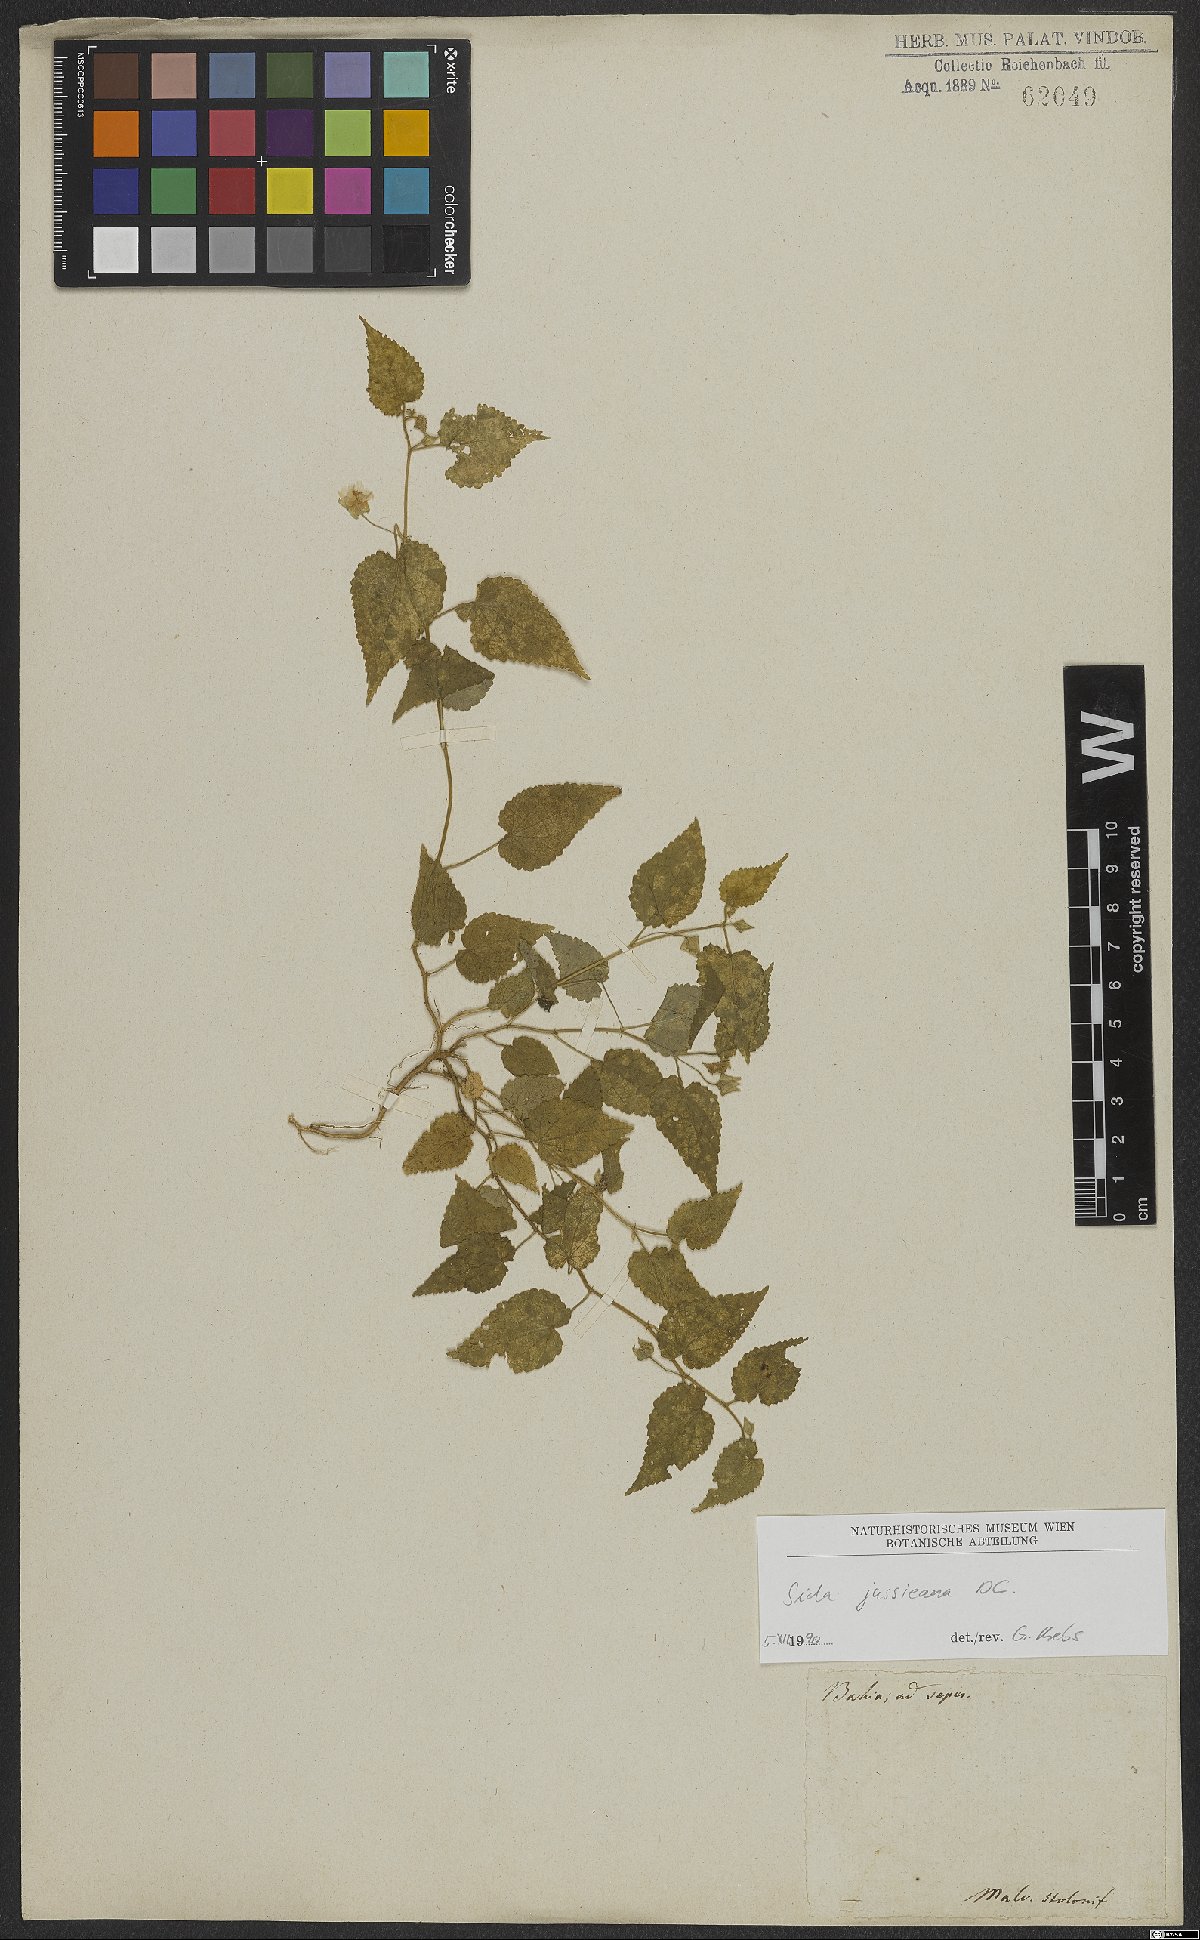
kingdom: Plantae
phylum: Tracheophyta
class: Magnoliopsida
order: Malvales
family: Malvaceae
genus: Sida
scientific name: Sida jussiaeana
